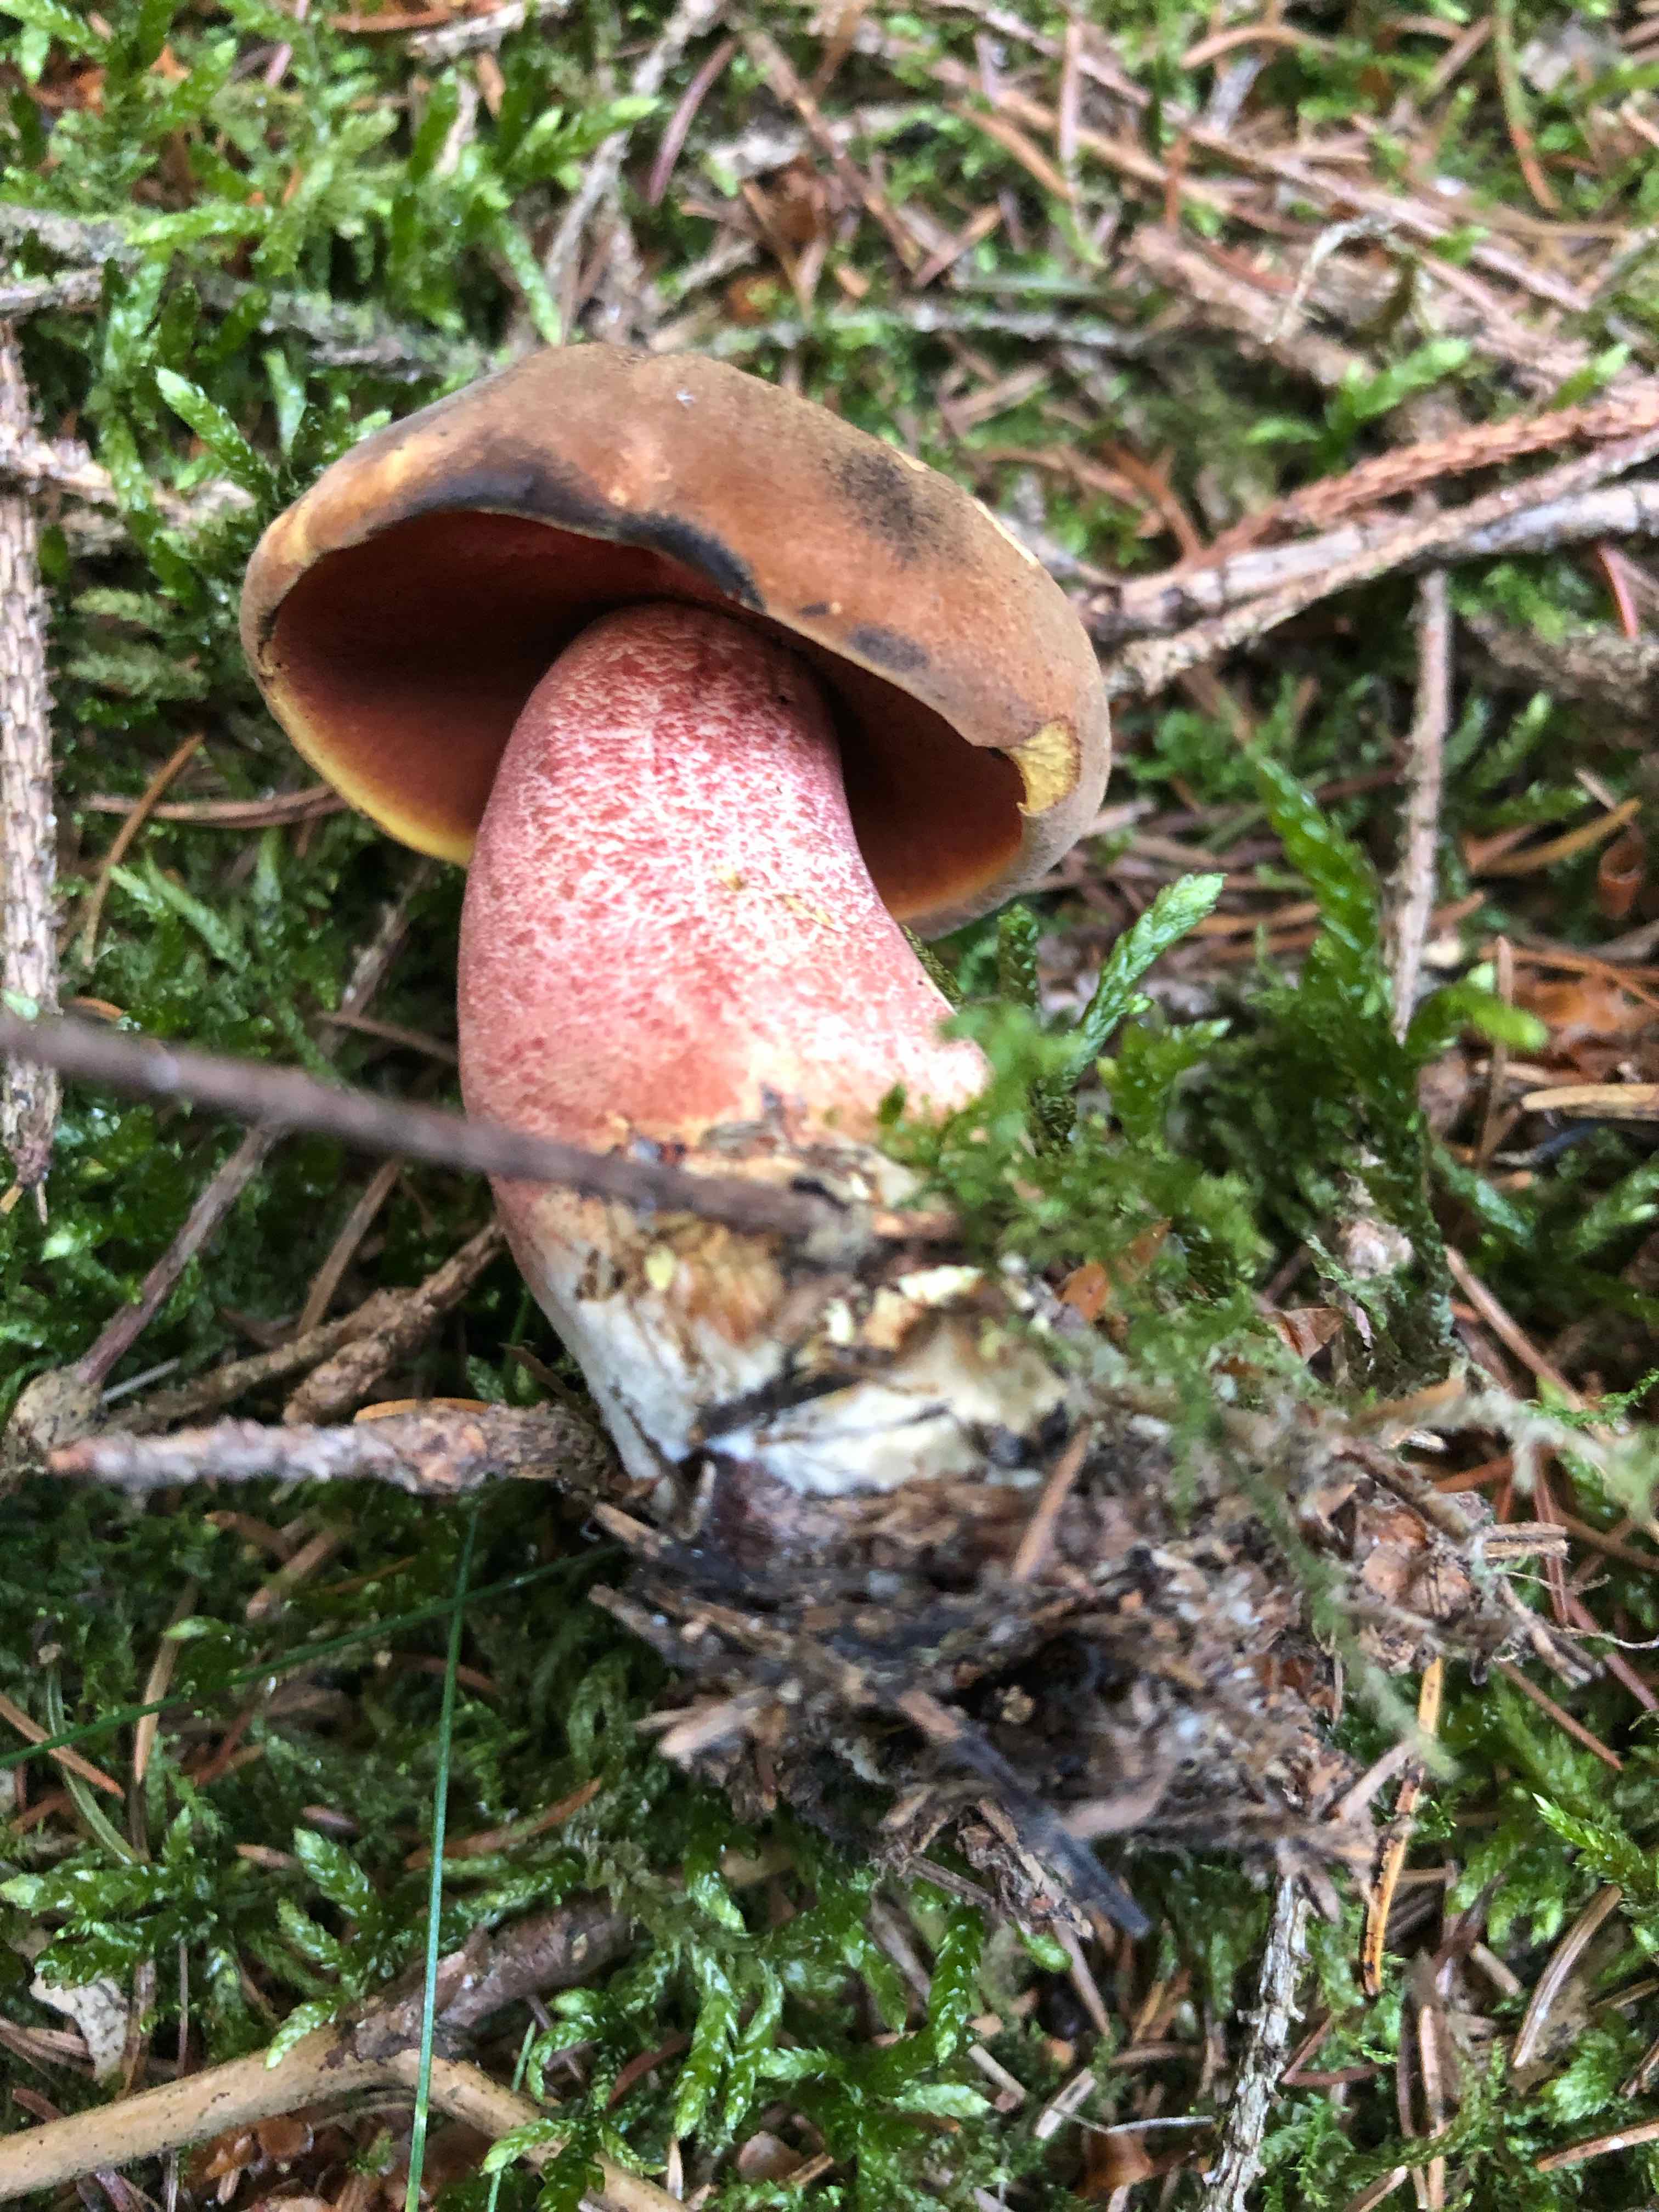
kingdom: Fungi
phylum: Basidiomycota
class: Agaricomycetes
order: Boletales
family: Boletaceae
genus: Neoboletus
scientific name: Neoboletus erythropus
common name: punktstokket indigorørhat
